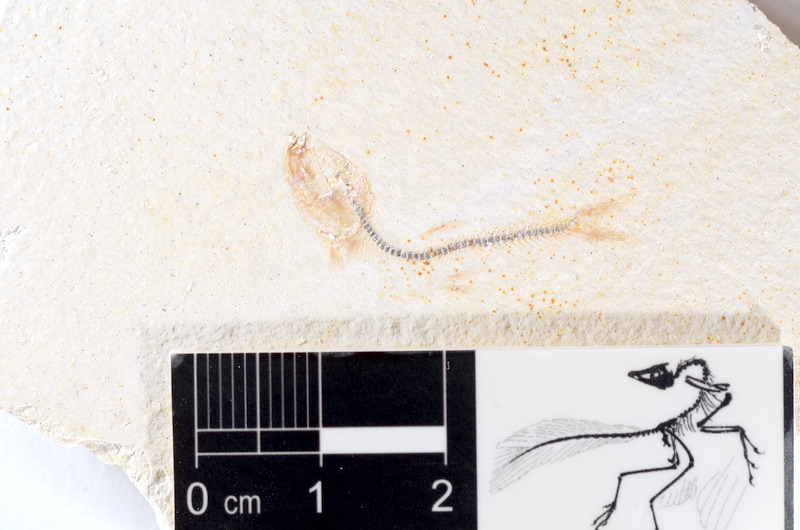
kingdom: Animalia
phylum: Chordata
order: Salmoniformes
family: Orthogonikleithridae
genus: Orthogonikleithrus
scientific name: Orthogonikleithrus hoelli
